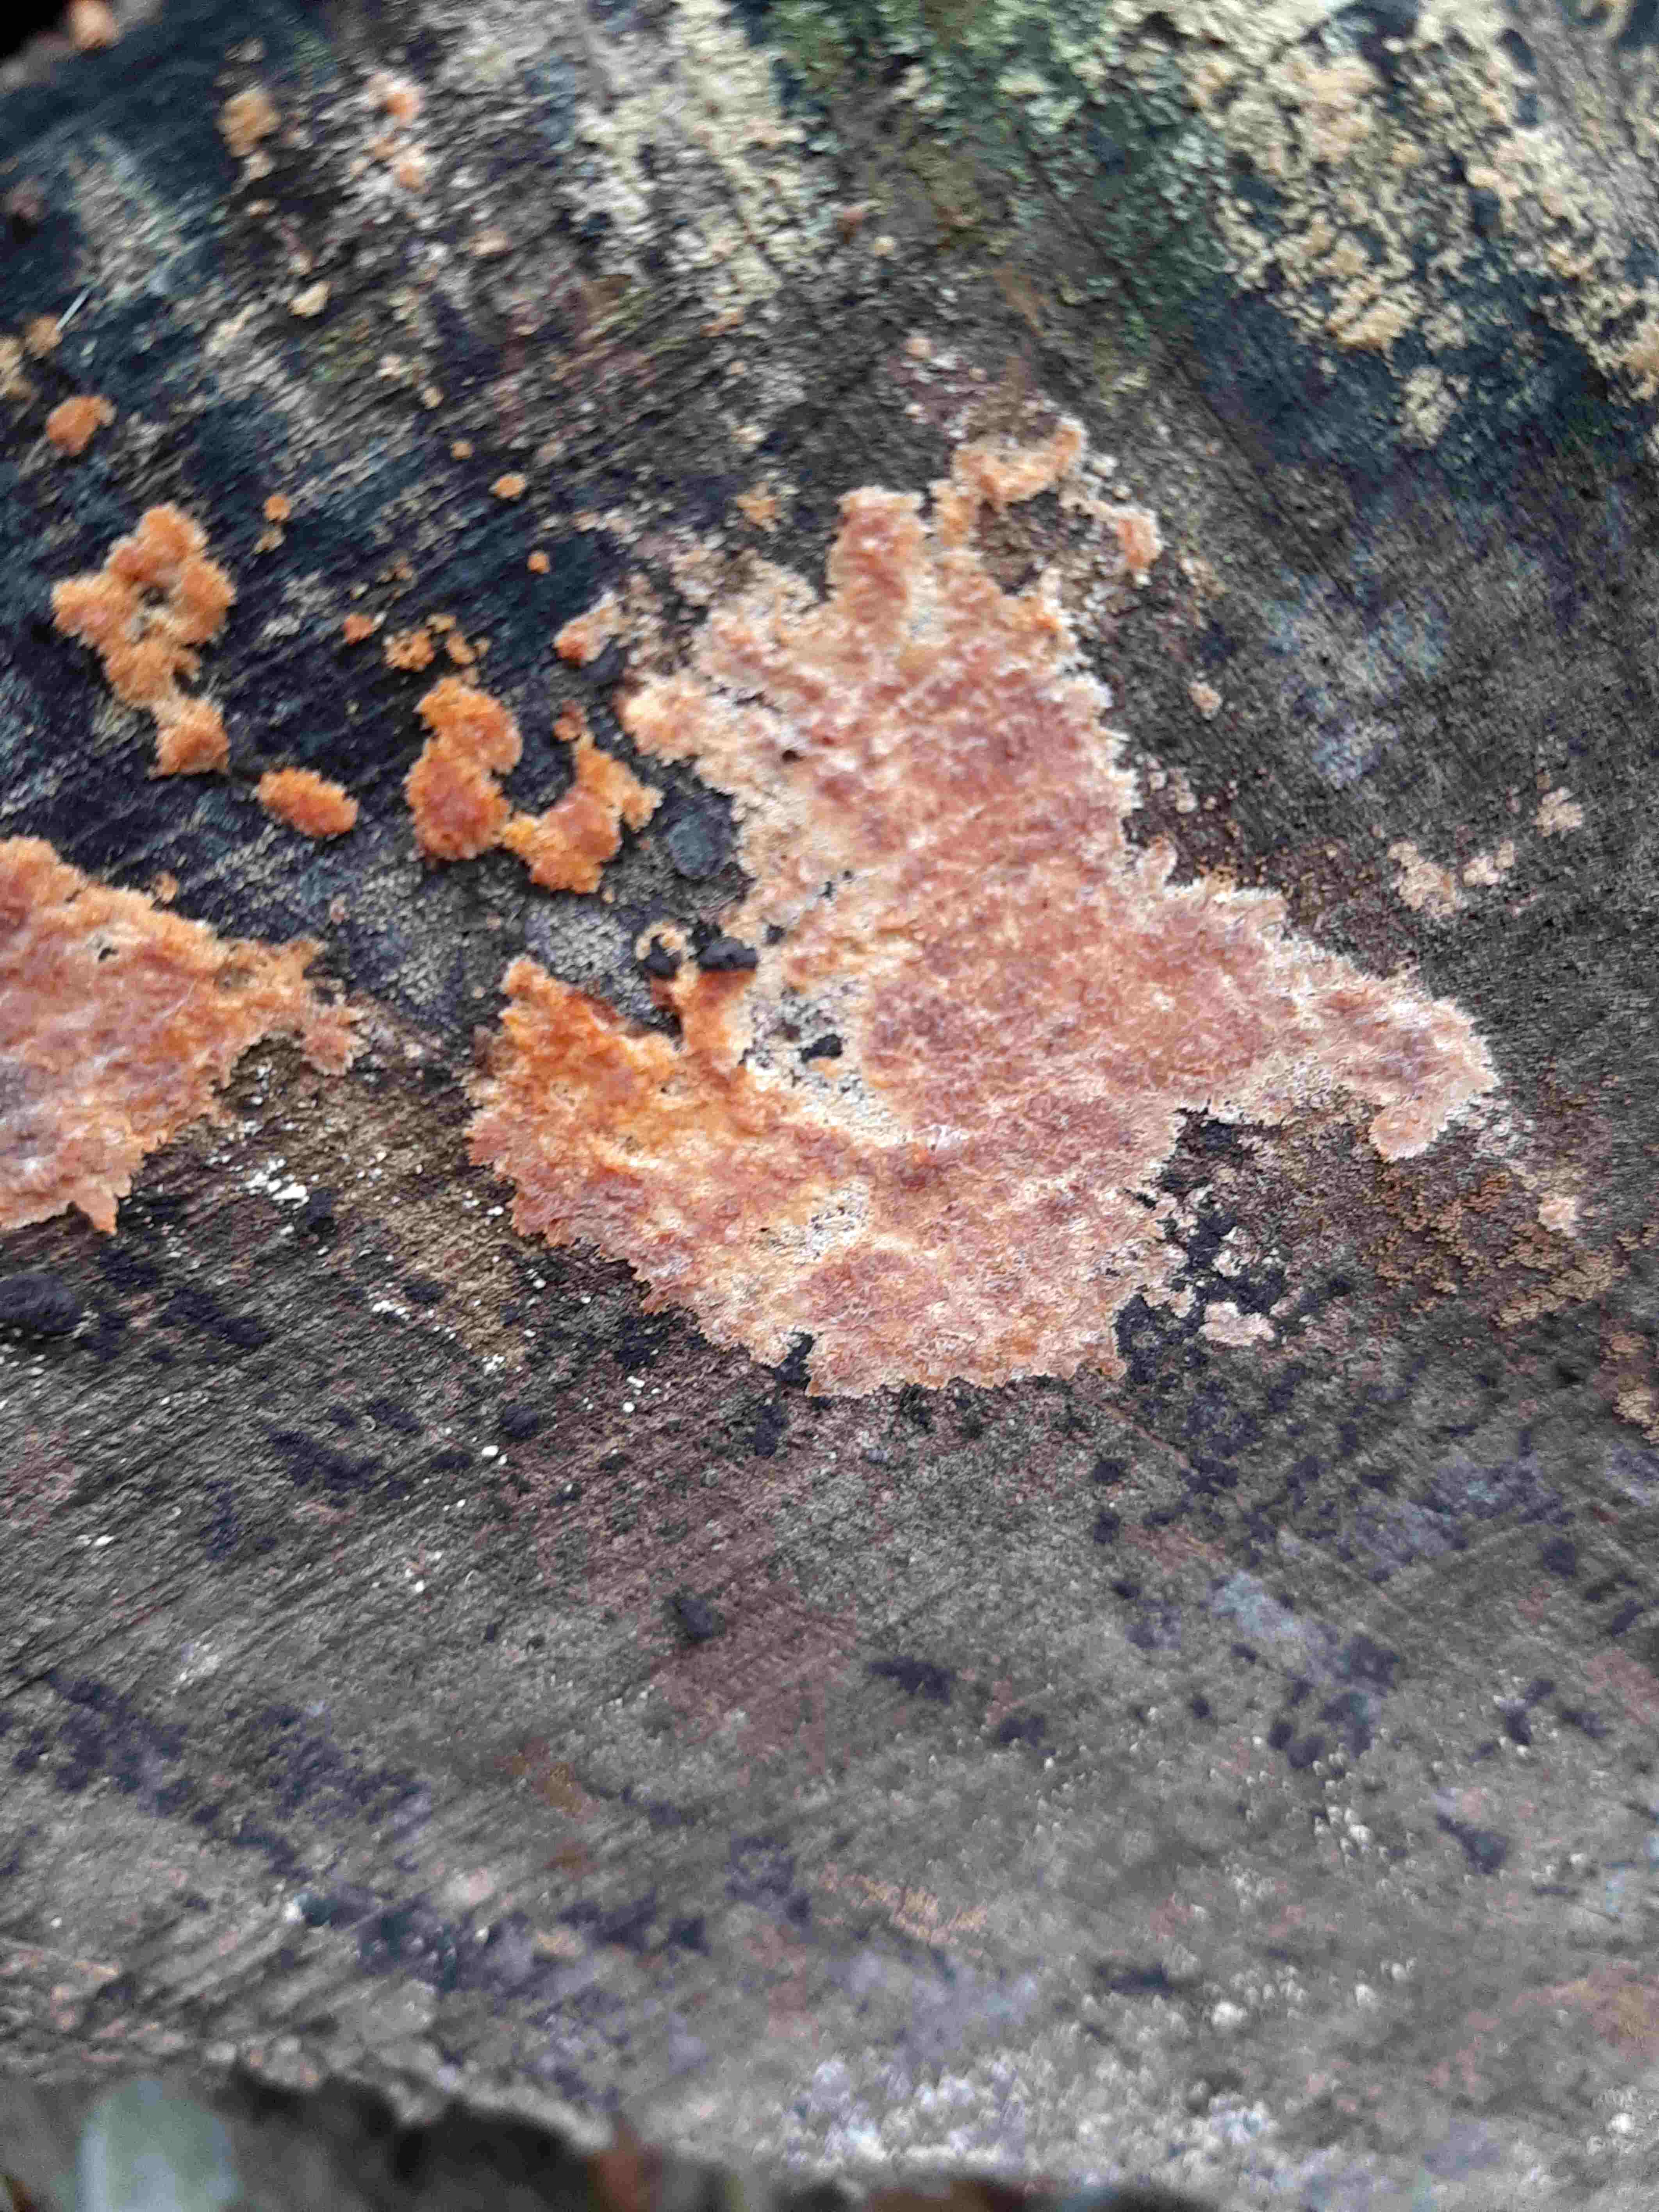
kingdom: Fungi
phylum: Basidiomycota
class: Agaricomycetes
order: Russulales
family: Peniophoraceae
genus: Peniophora
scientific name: Peniophora incarnata
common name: laksefarvet voksskind
